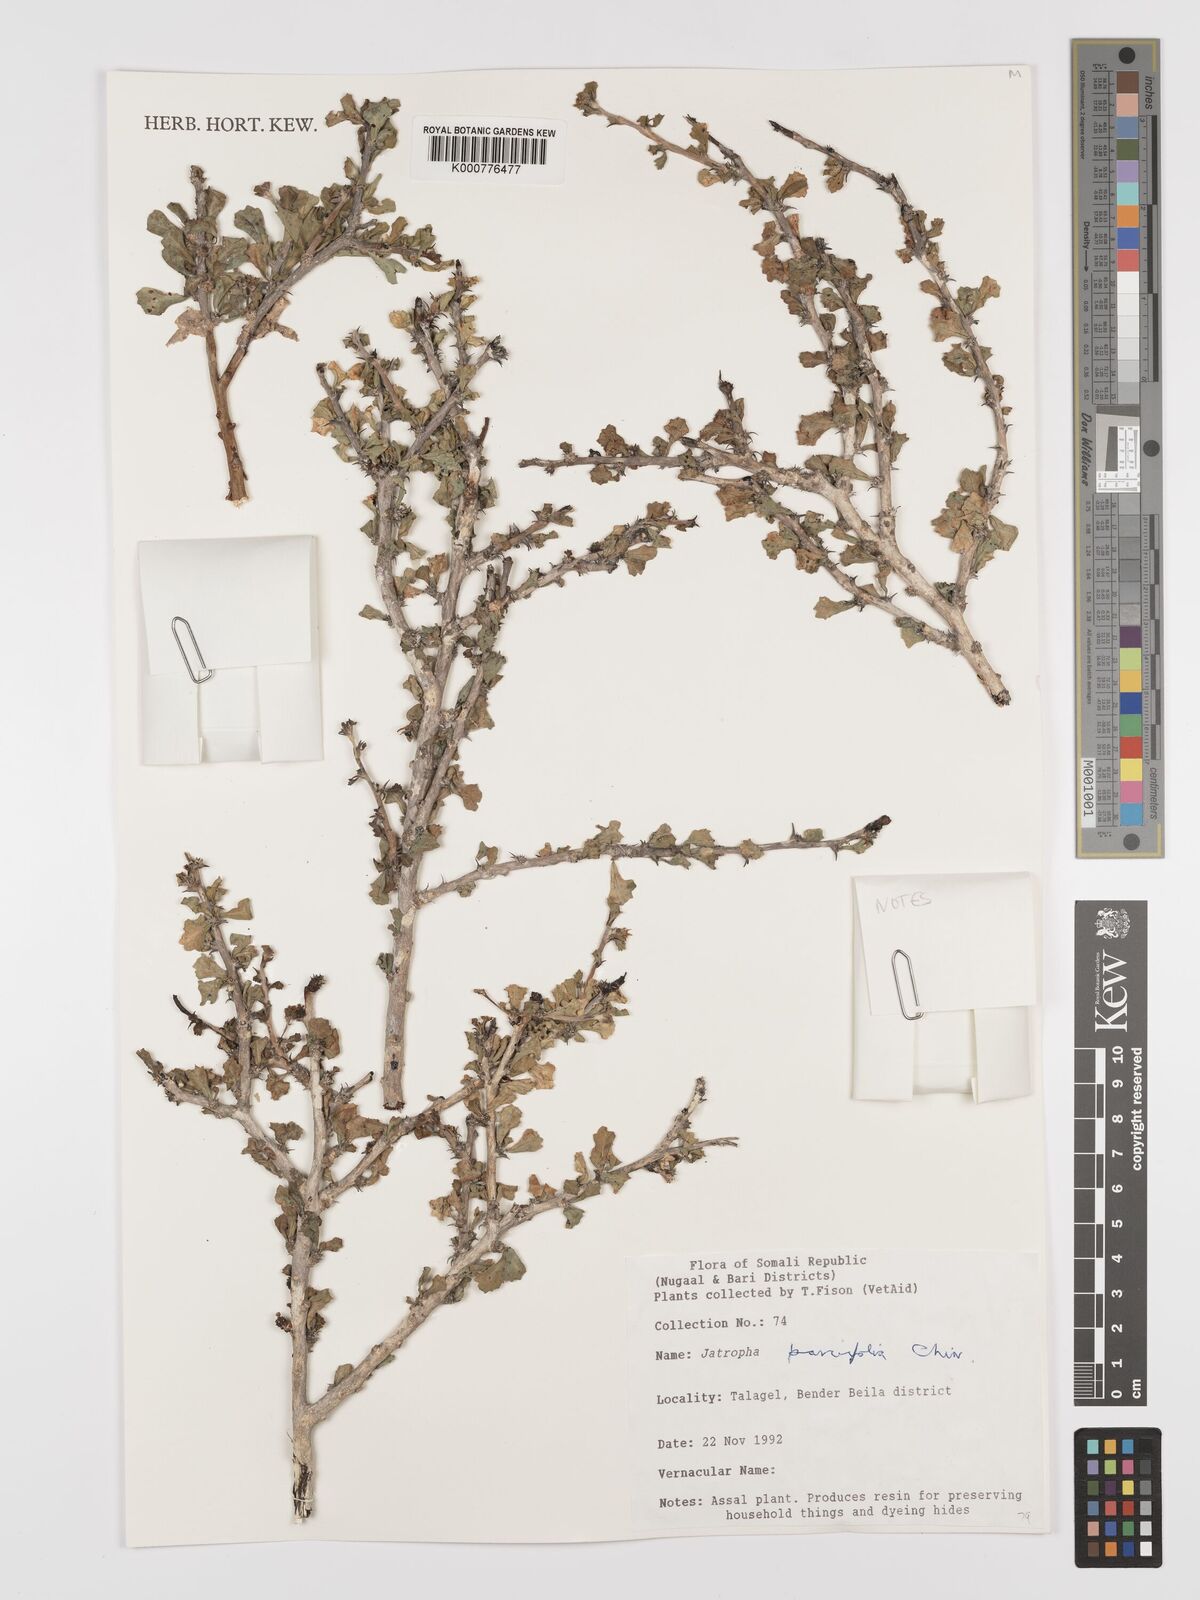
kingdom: Plantae
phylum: Tracheophyta
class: Magnoliopsida
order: Malpighiales
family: Euphorbiaceae
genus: Jatropha
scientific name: Jatropha rivae
